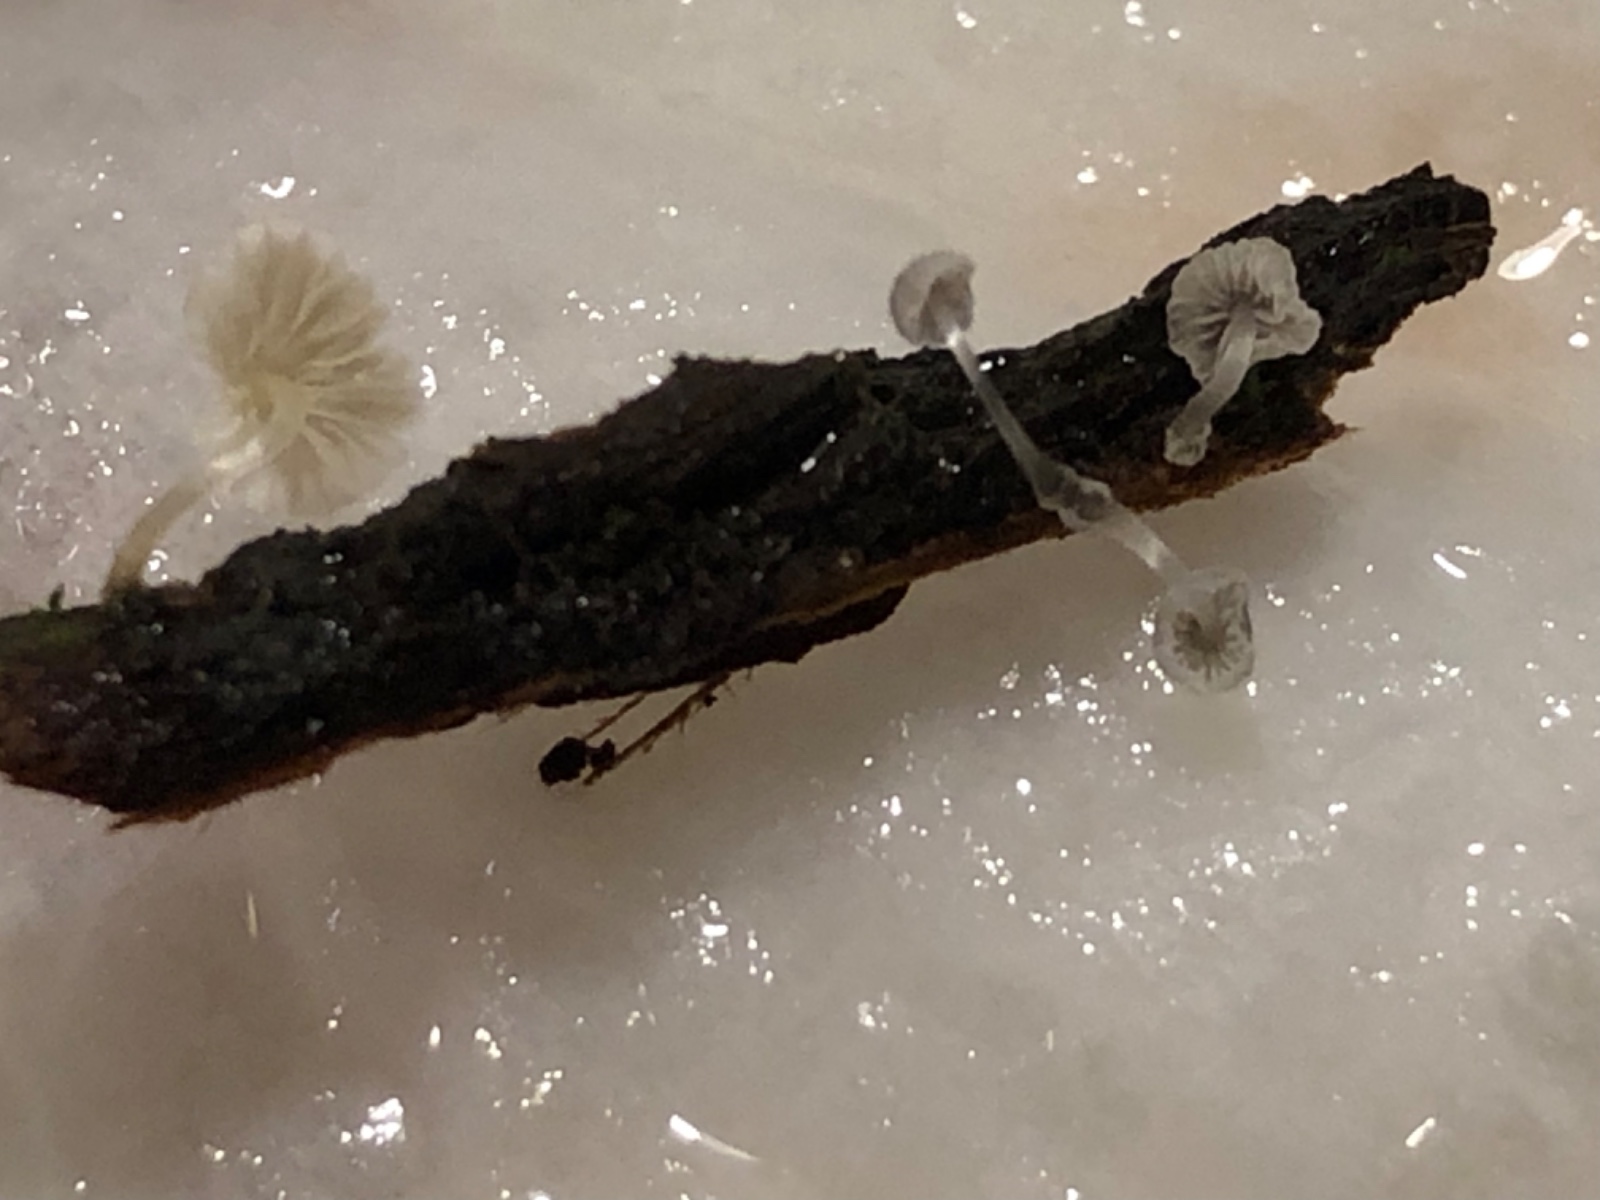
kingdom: Fungi
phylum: Basidiomycota
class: Agaricomycetes
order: Agaricales
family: Mycenaceae
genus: Mycena
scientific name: Mycena tenerrima
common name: pudret huesvamp
